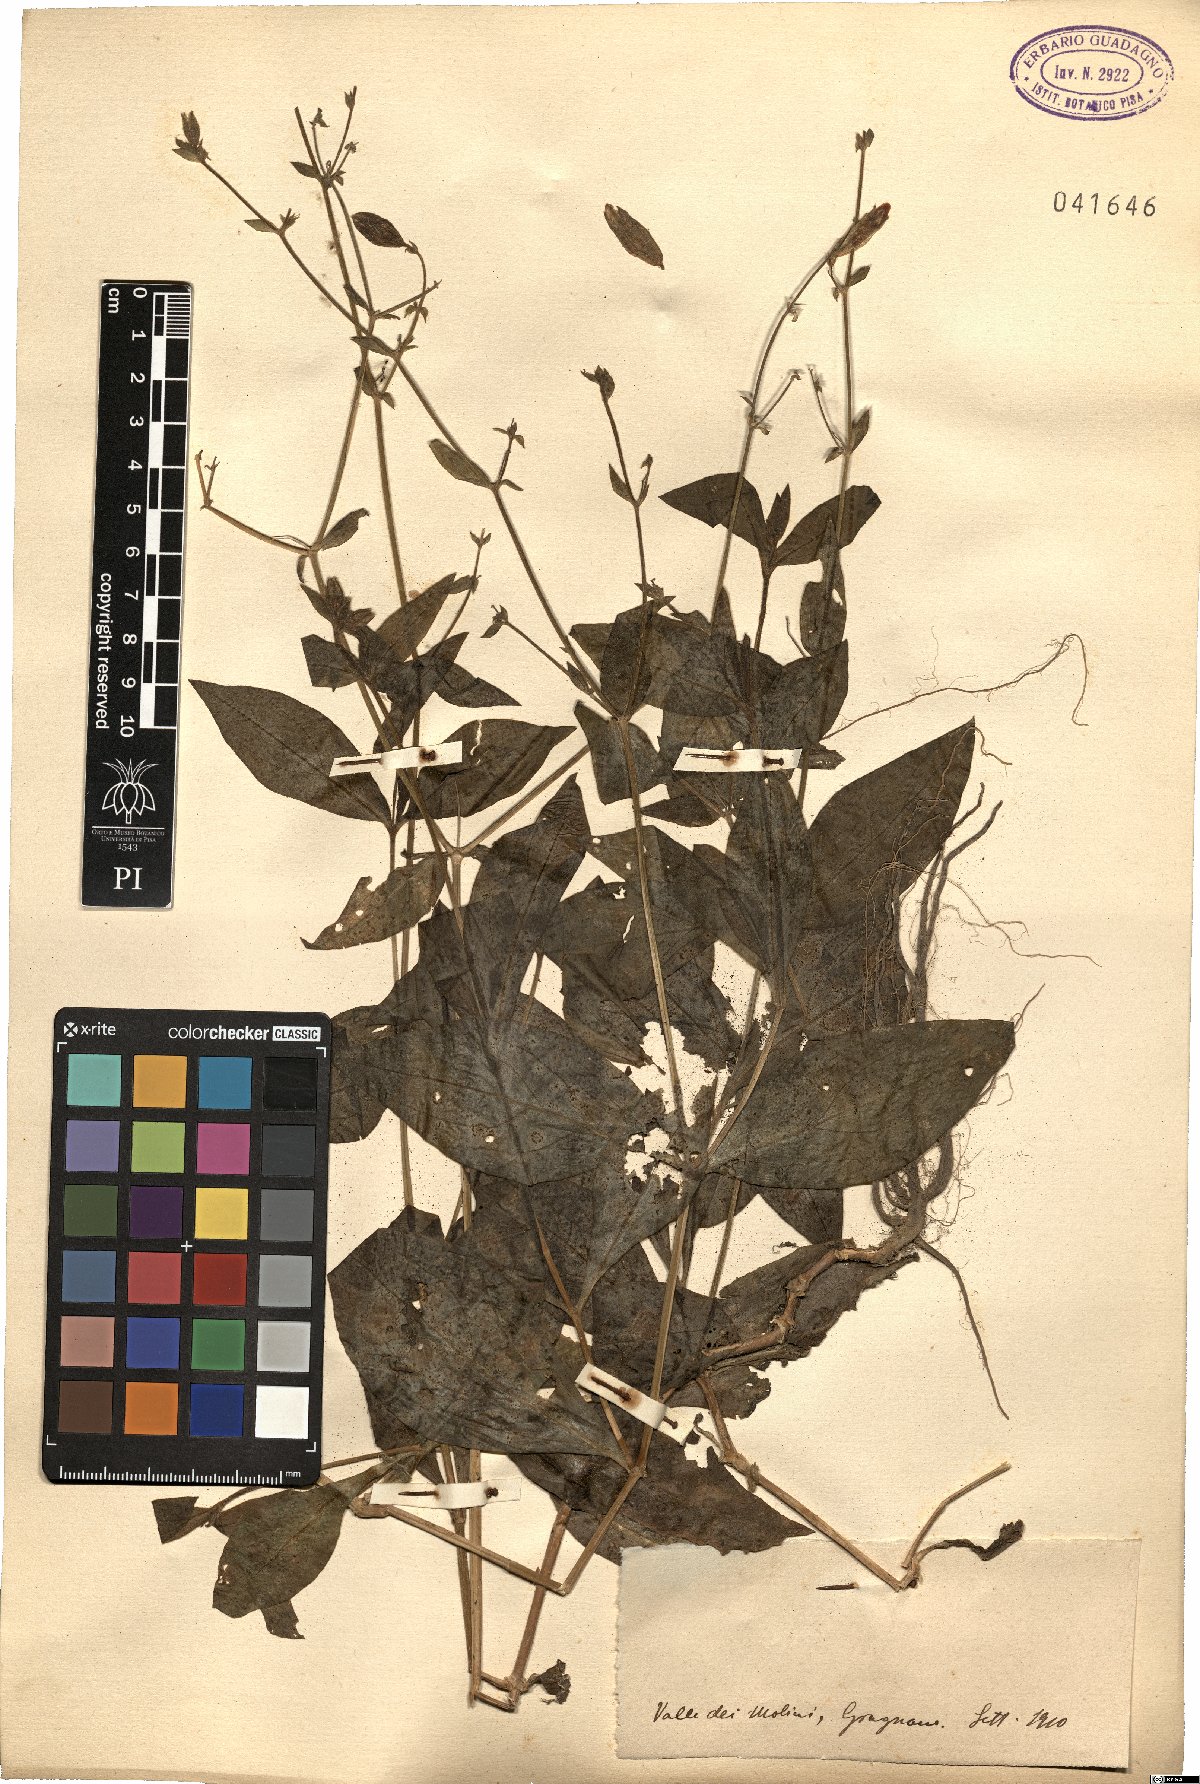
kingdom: Plantae
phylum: Tracheophyta
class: Magnoliopsida
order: Caryophyllales
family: Caryophyllaceae
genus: Silene
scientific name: Silene
